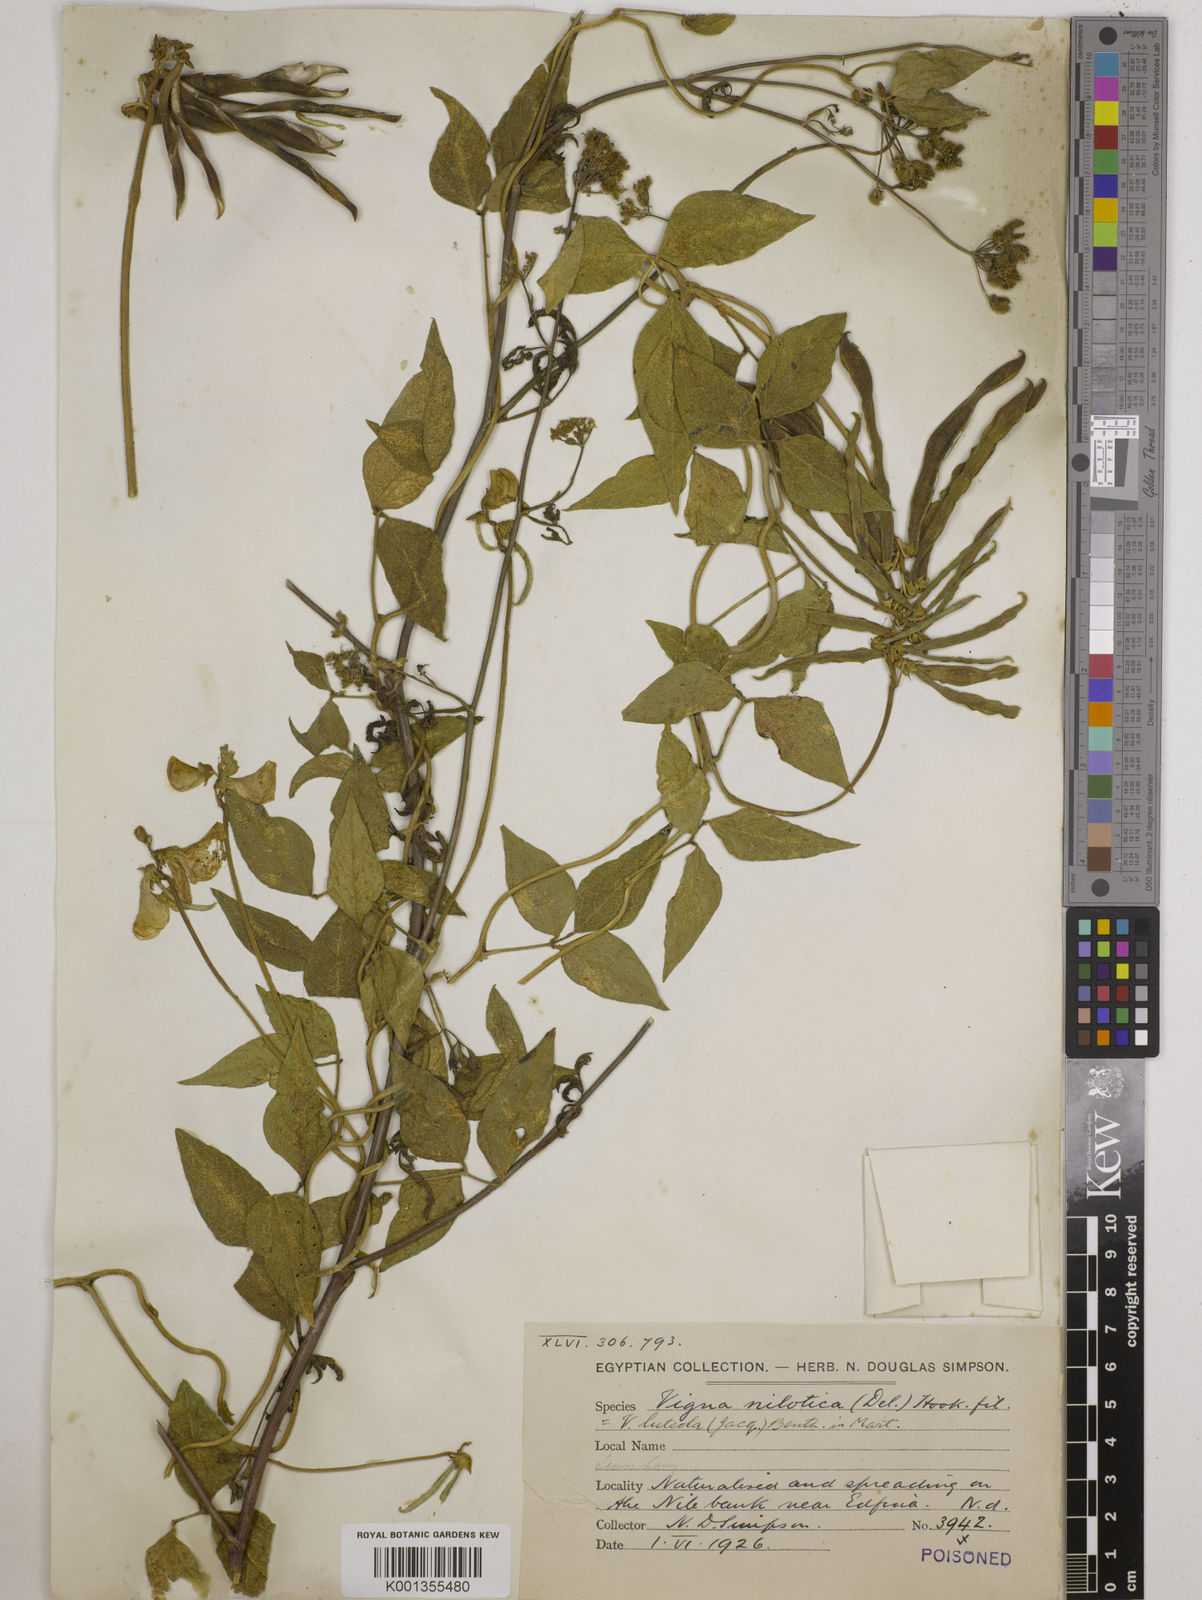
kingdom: Plantae
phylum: Tracheophyta
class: Magnoliopsida
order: Fabales
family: Fabaceae
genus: Vigna
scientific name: Vigna luteola
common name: Hairypod cowpea
